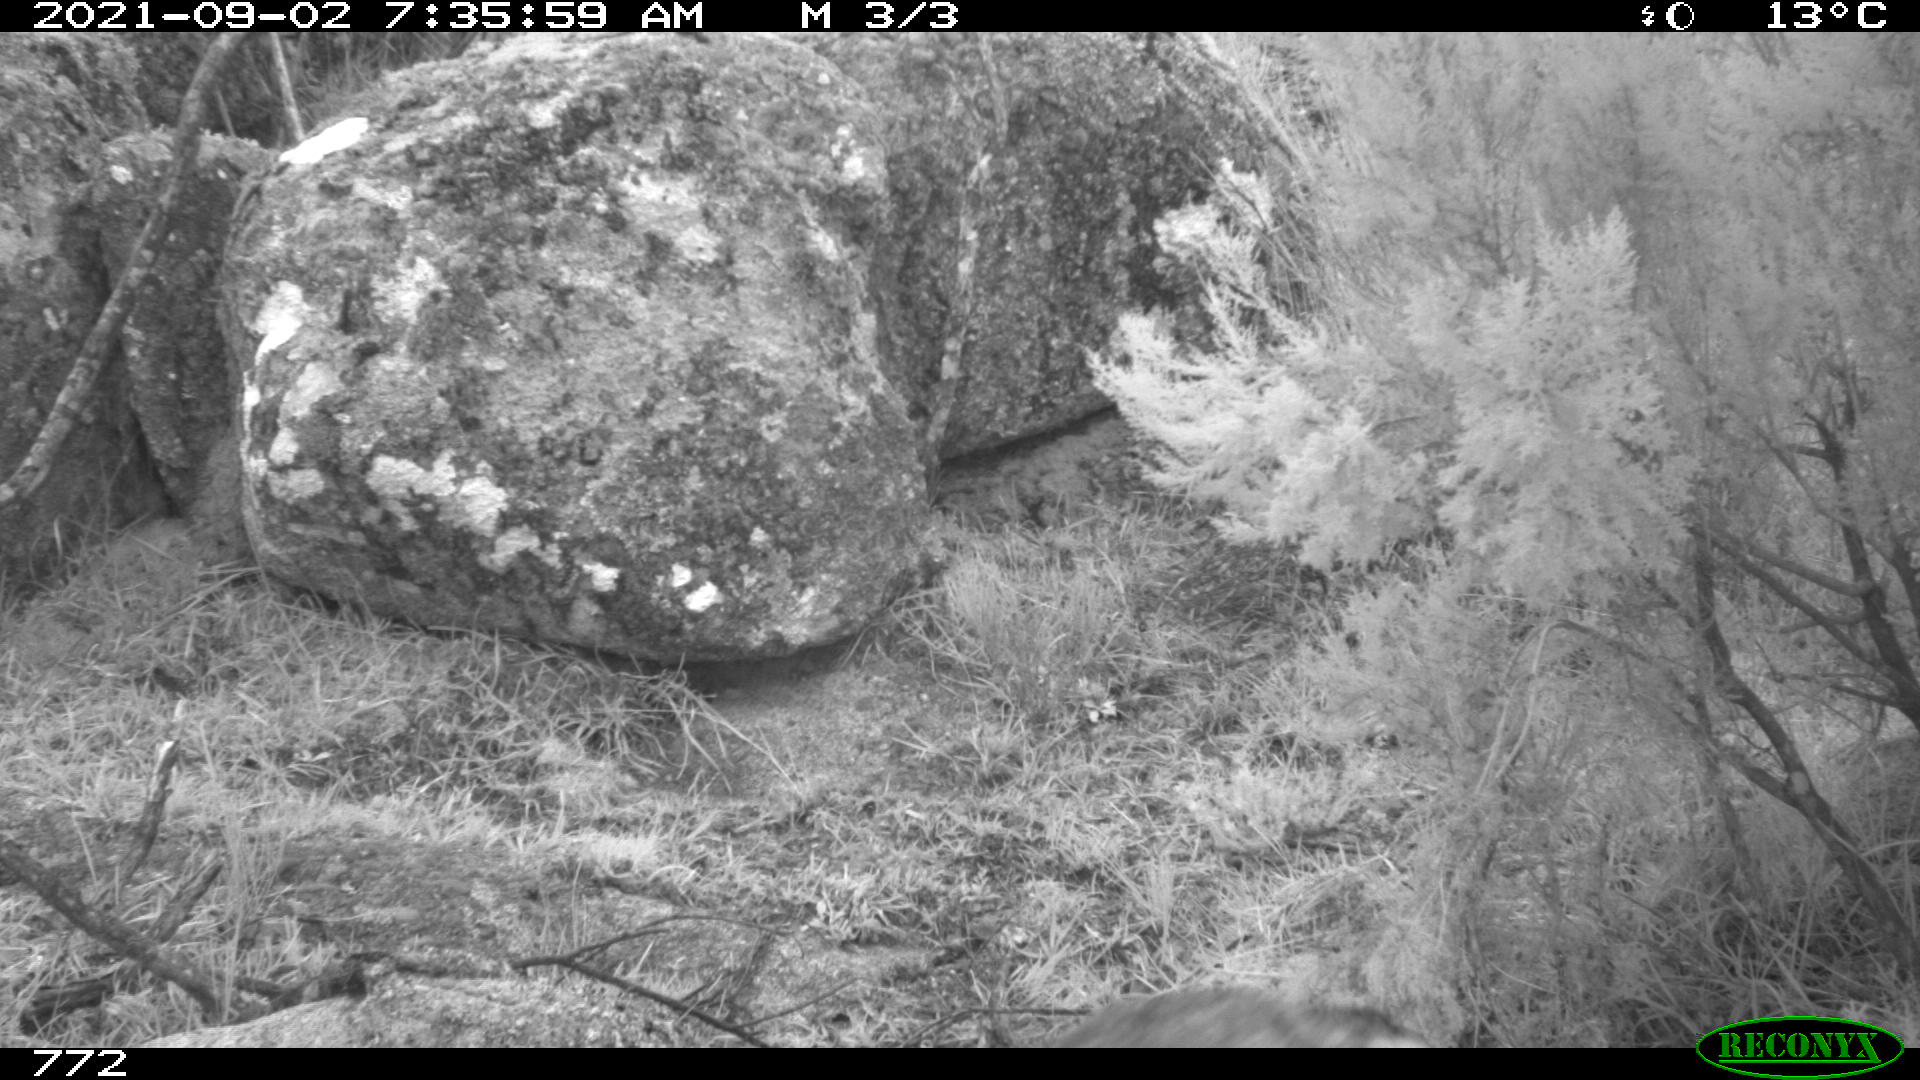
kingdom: Animalia
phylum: Chordata
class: Mammalia
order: Carnivora
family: Canidae
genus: Canis
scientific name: Canis lupus
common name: Gray wolf
